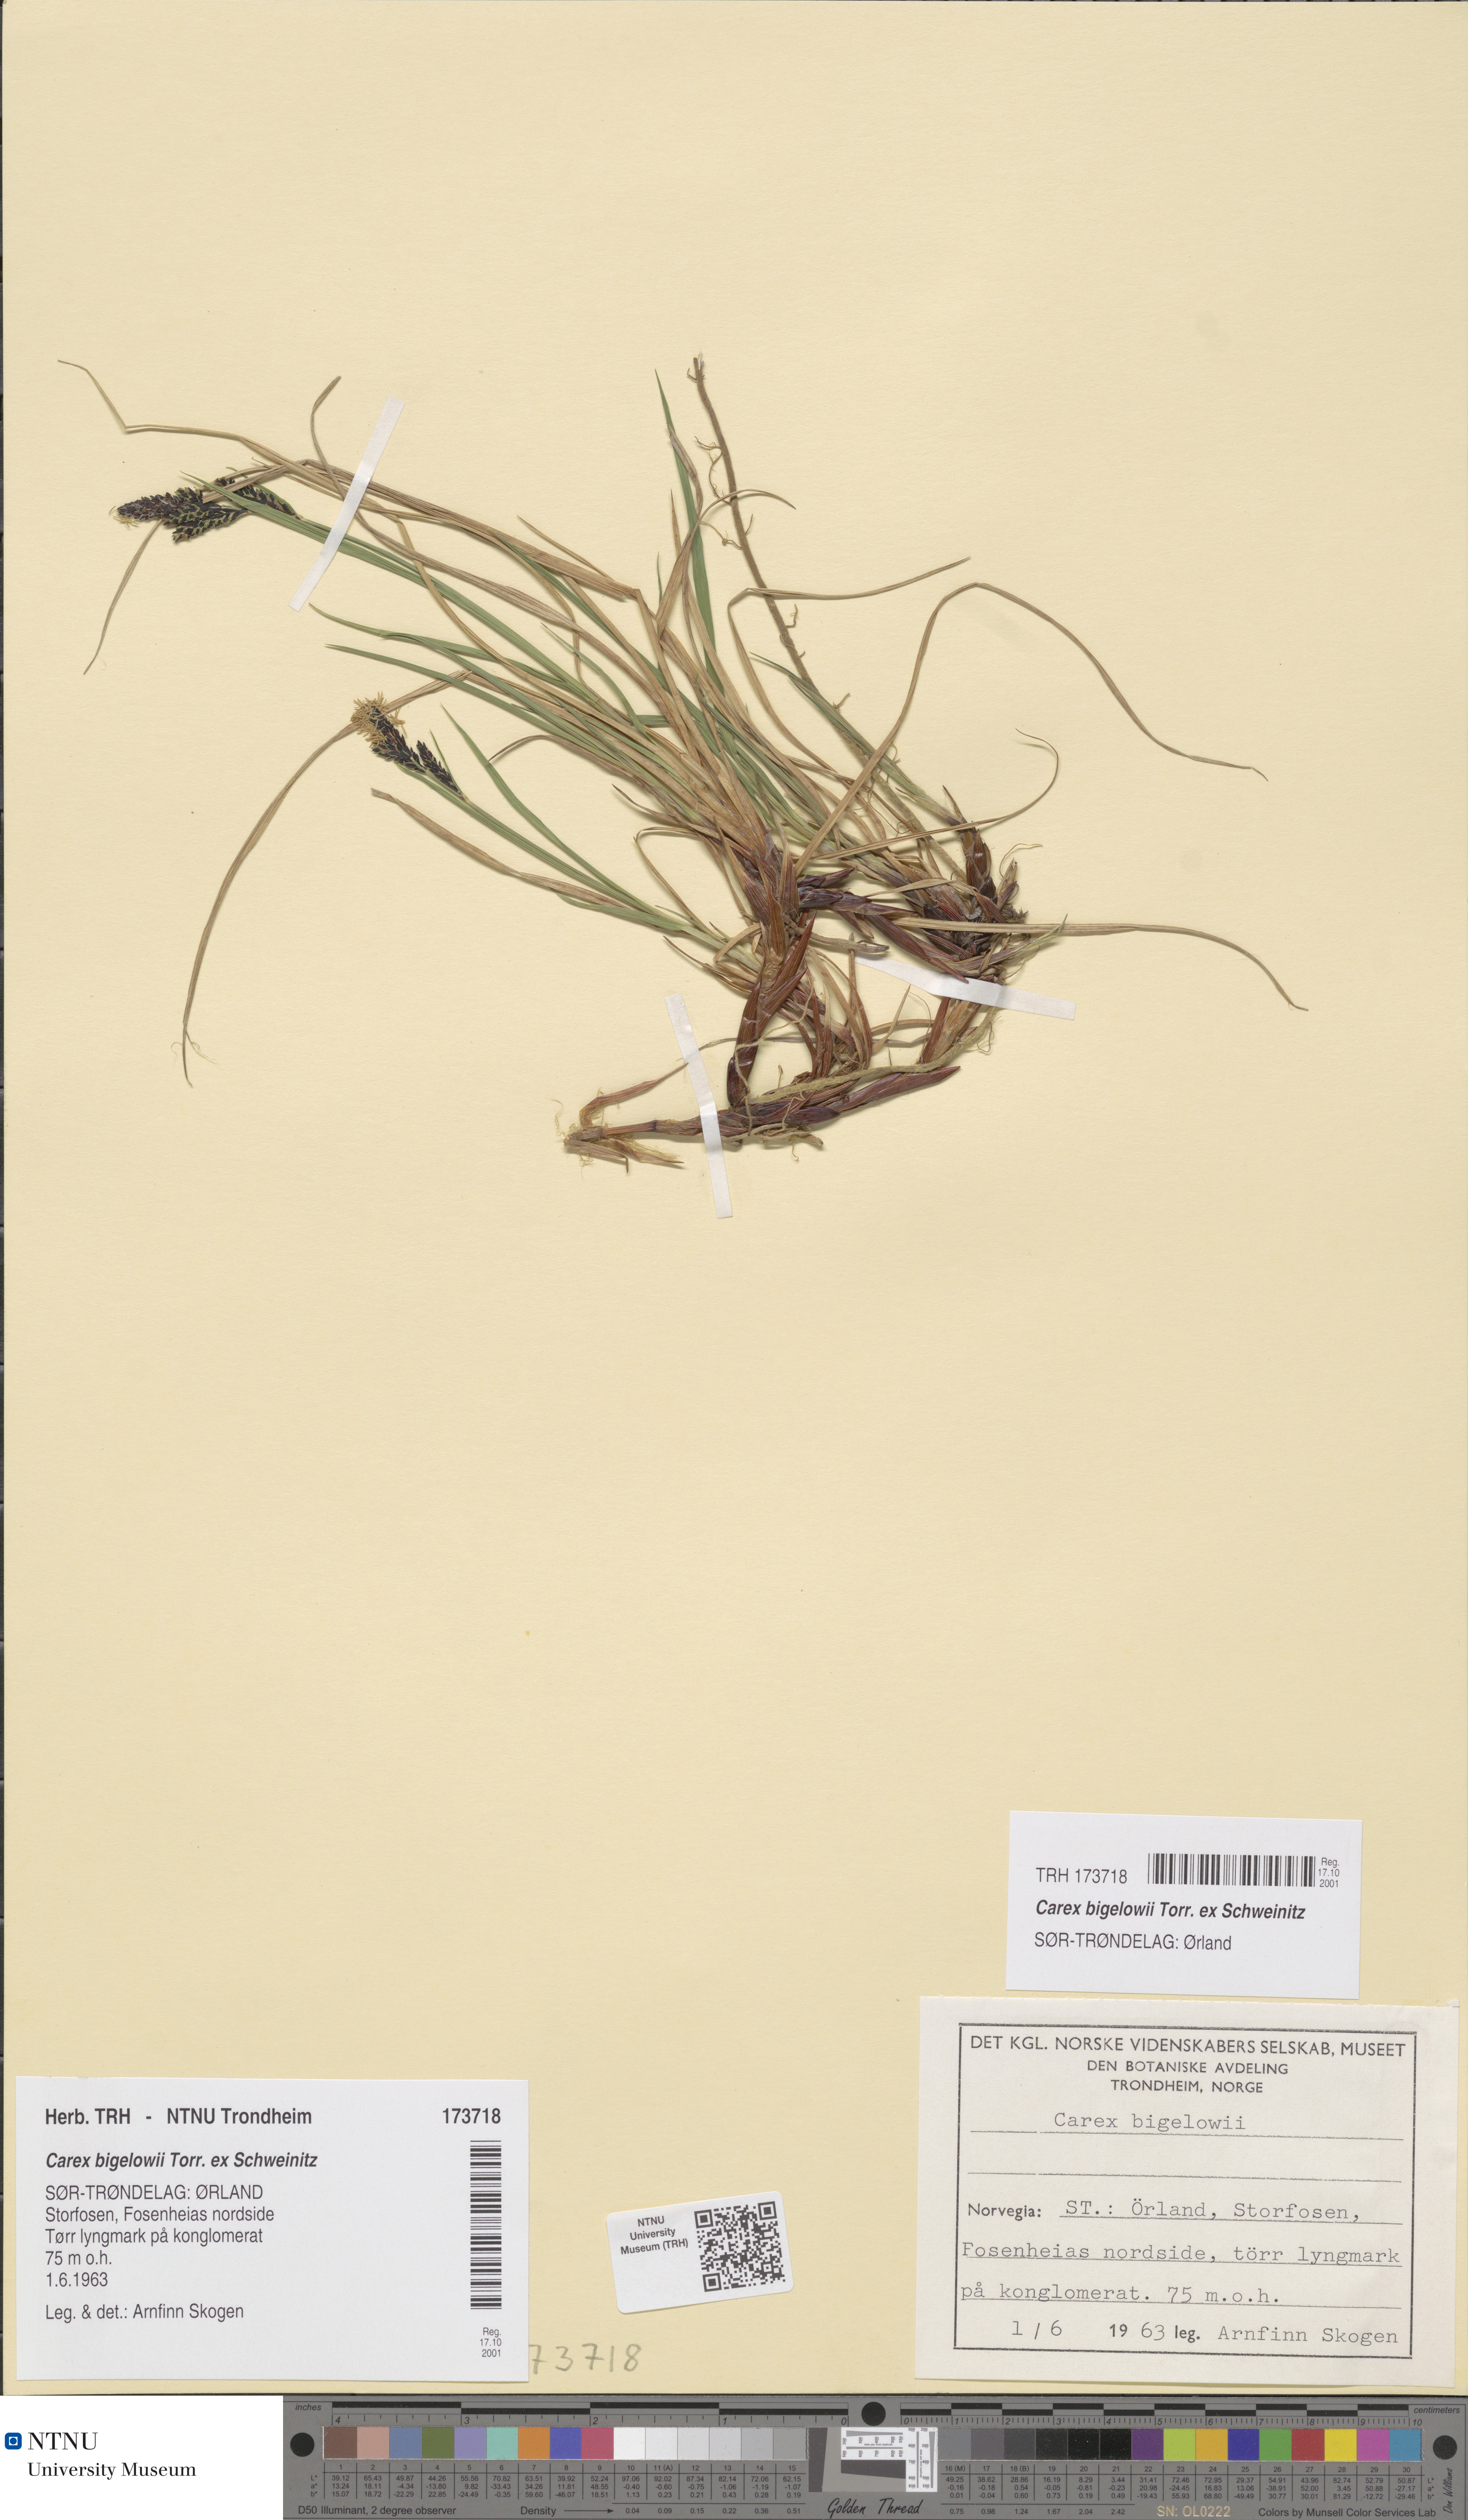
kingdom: Plantae
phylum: Tracheophyta
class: Liliopsida
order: Poales
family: Cyperaceae
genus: Carex
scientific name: Carex bigelowii
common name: Stiff sedge
